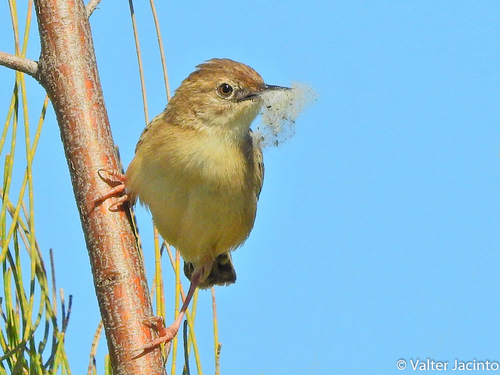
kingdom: Animalia
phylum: Chordata
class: Aves
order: Passeriformes
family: Cisticolidae
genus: Cisticola
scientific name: Cisticola juncidis
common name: Zitting cisticola
